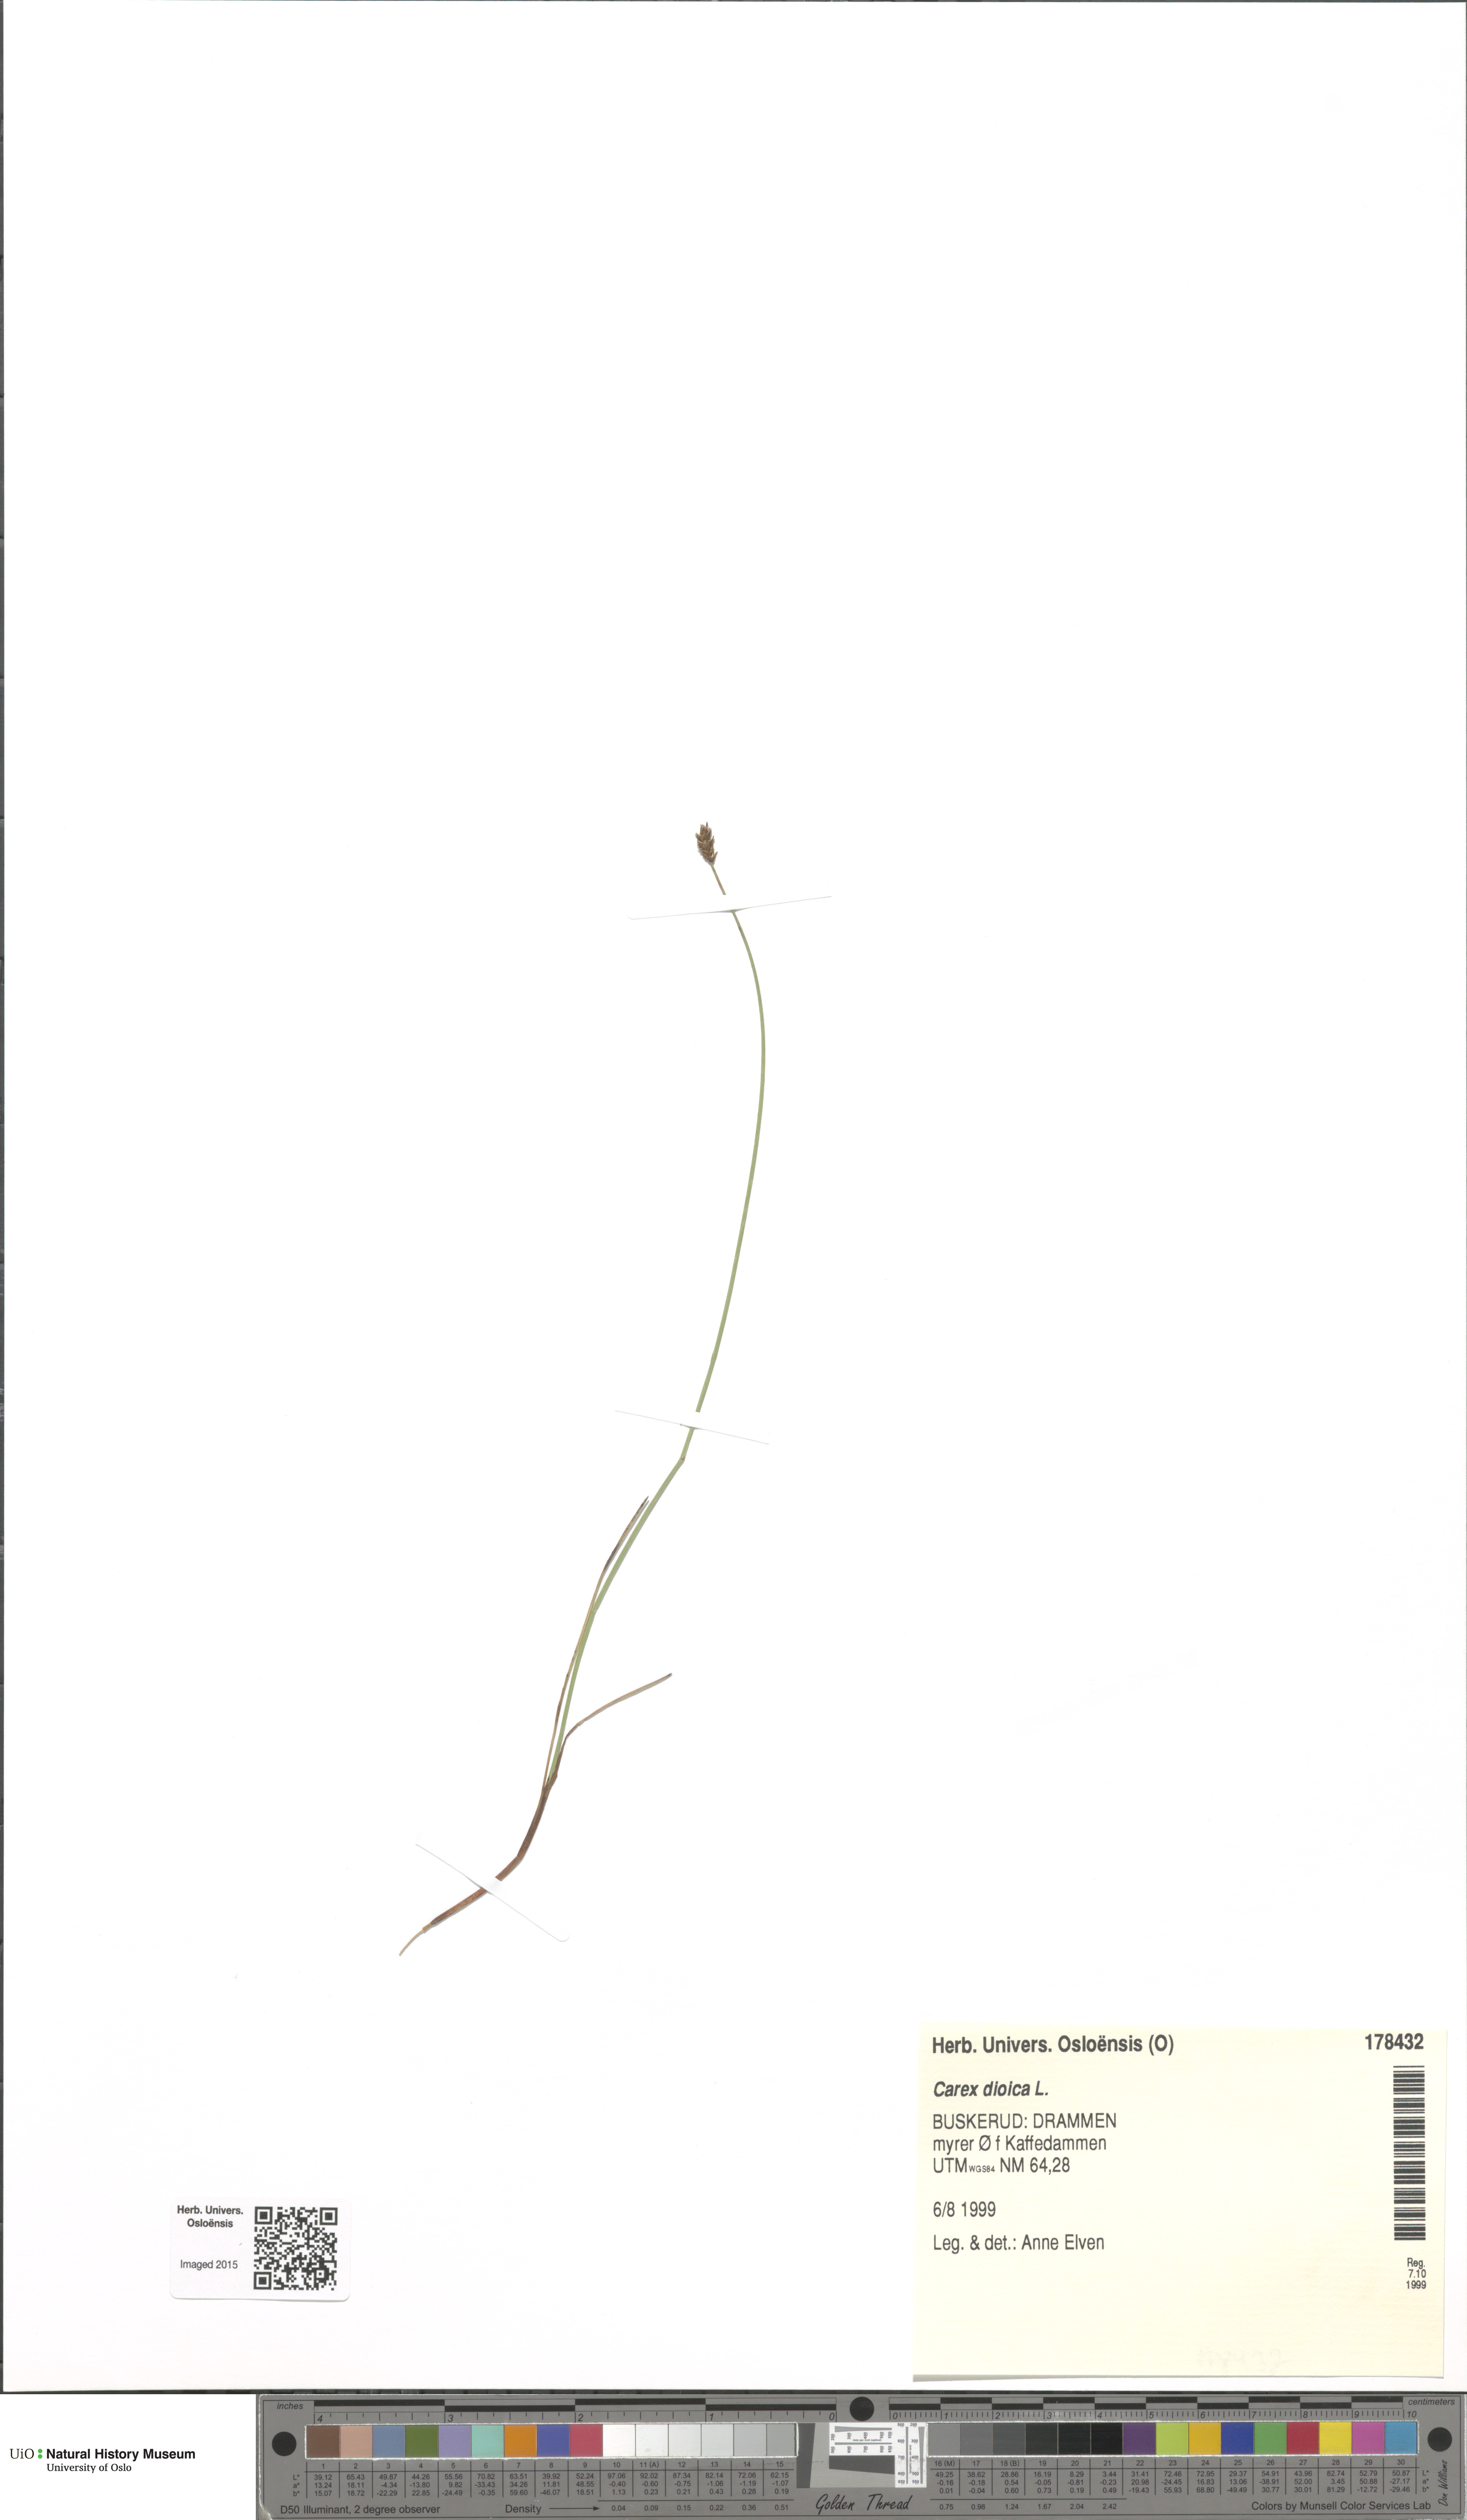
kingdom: Plantae
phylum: Tracheophyta
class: Liliopsida
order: Poales
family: Cyperaceae
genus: Carex
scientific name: Carex dioica
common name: Dioecious sedge
